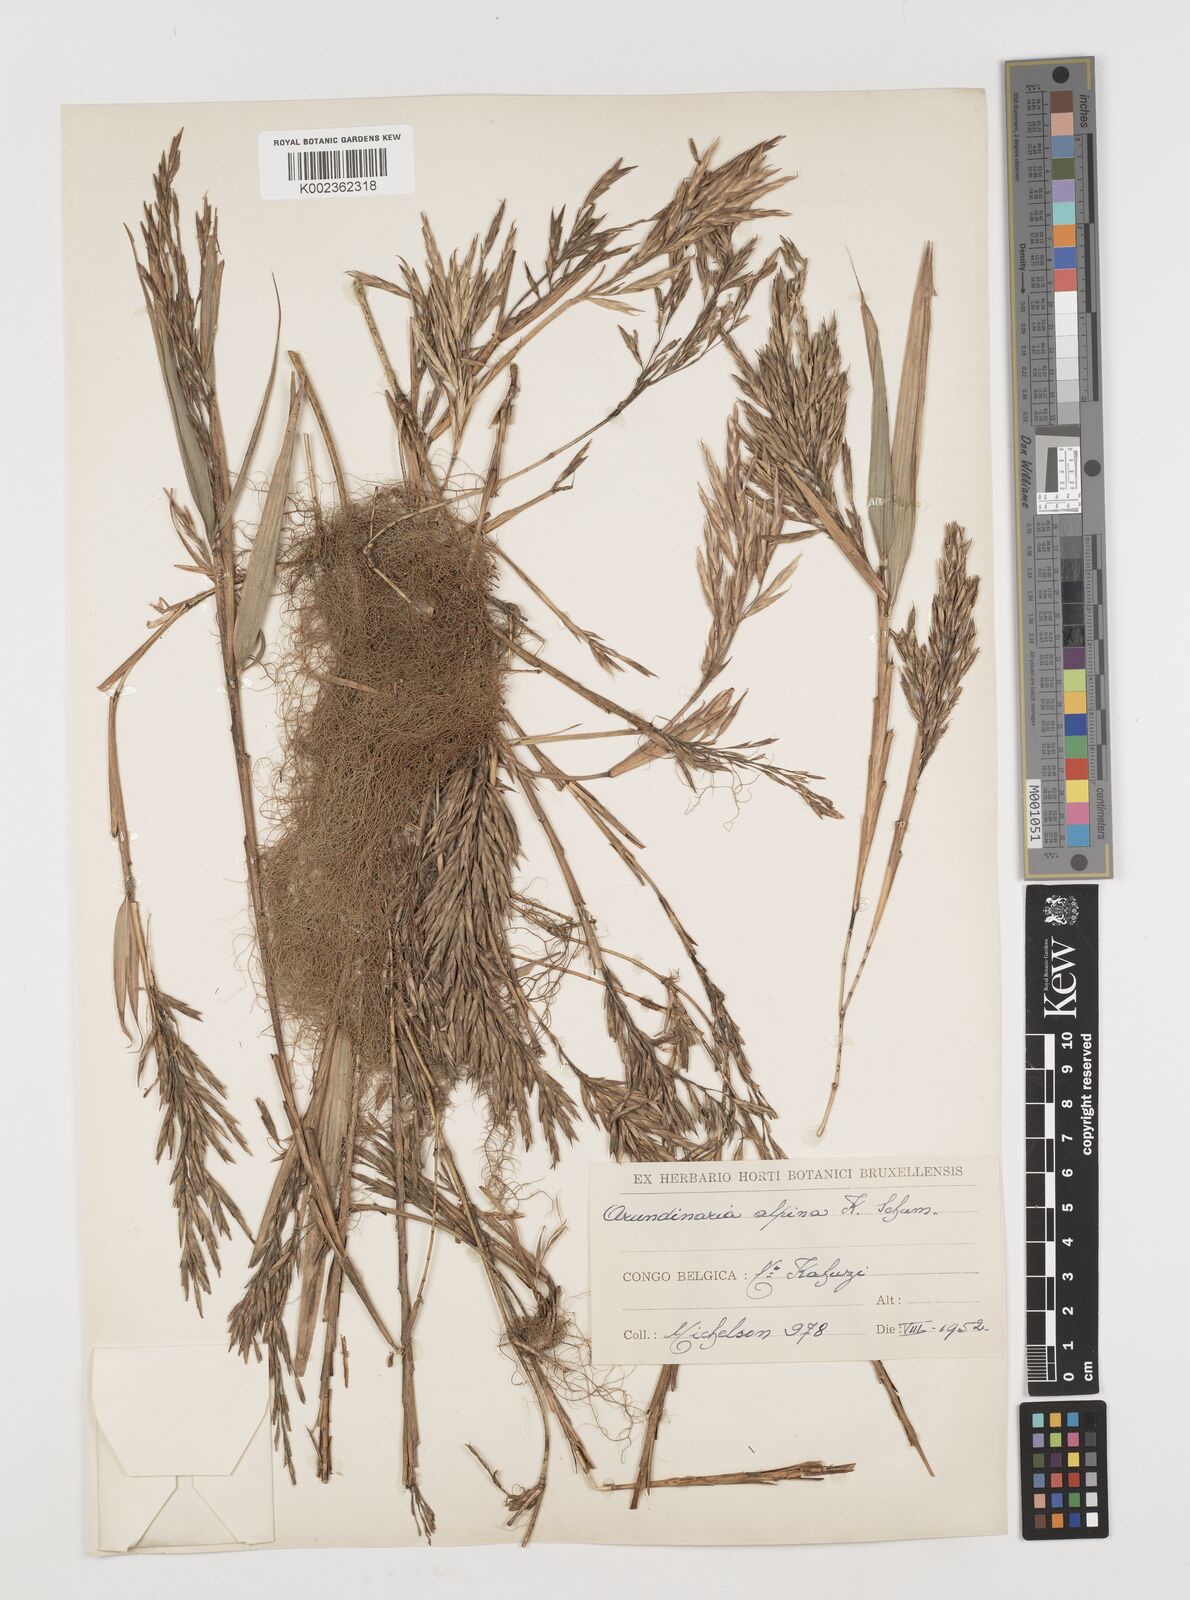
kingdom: Plantae
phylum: Tracheophyta
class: Liliopsida
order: Poales
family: Poaceae
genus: Oldeania
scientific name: Oldeania alpina
